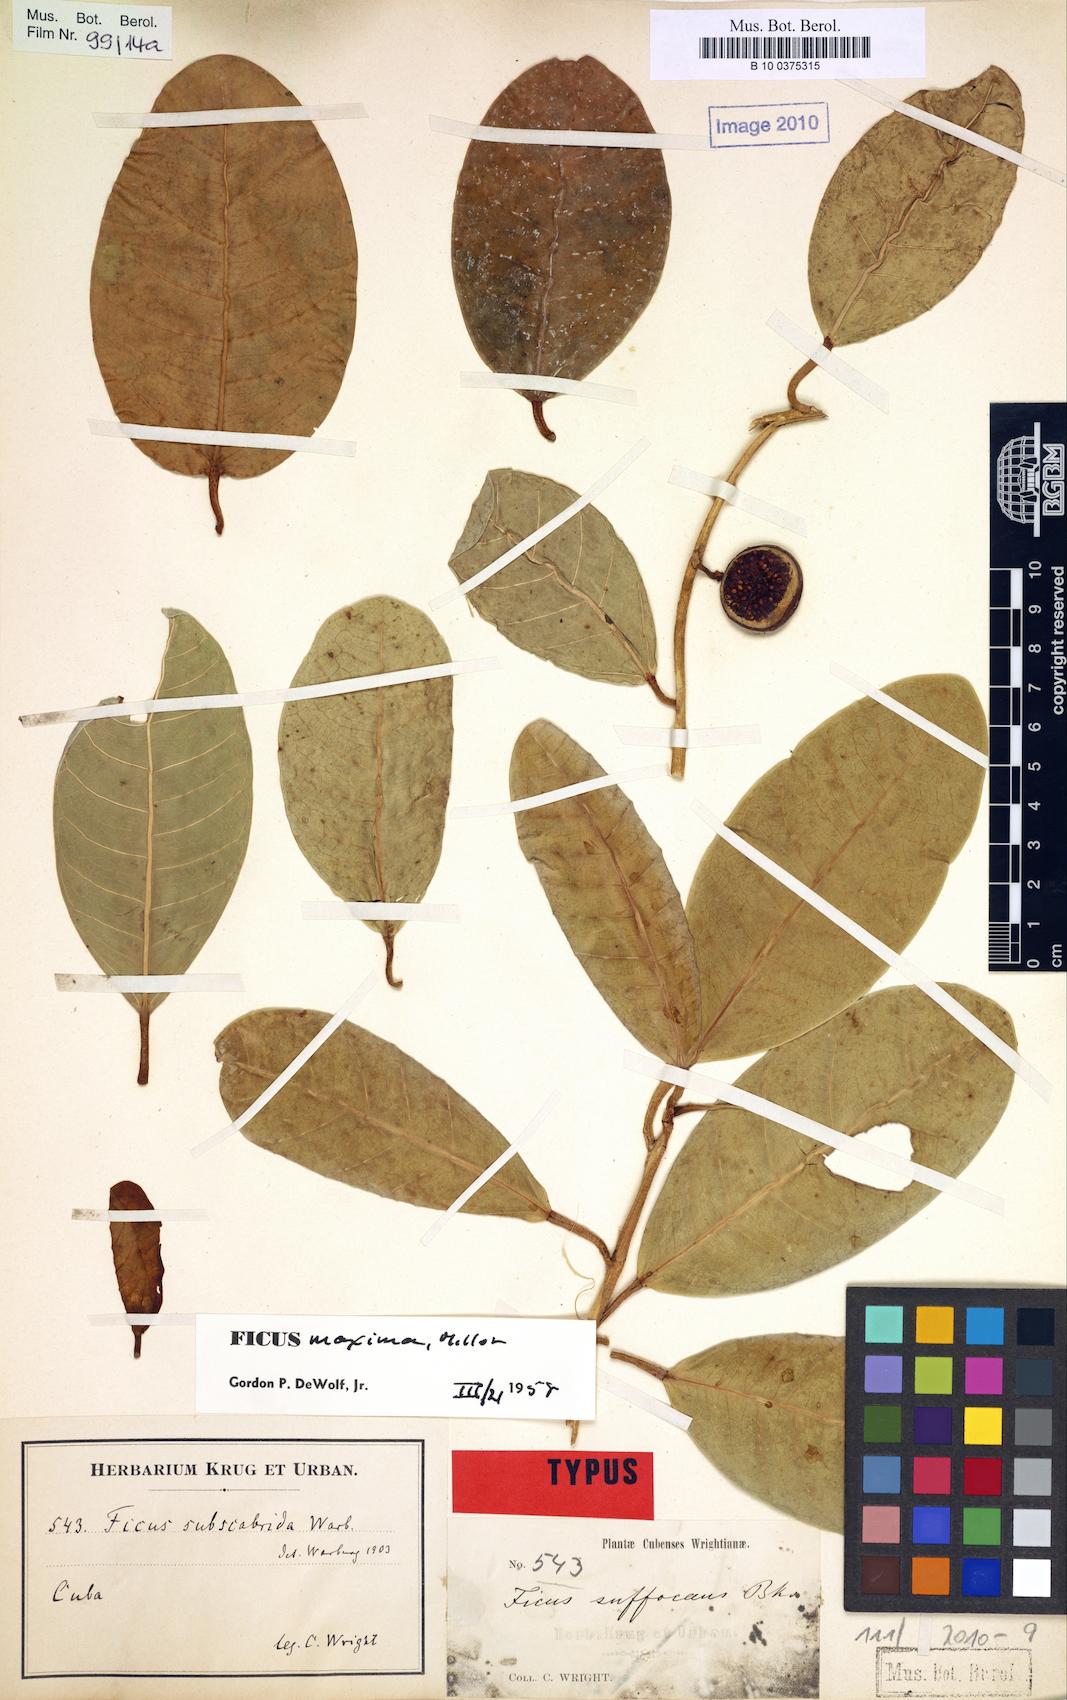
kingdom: Plantae
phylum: Tracheophyta
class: Magnoliopsida
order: Rosales
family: Moraceae
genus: Ficus
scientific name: Ficus maxima
